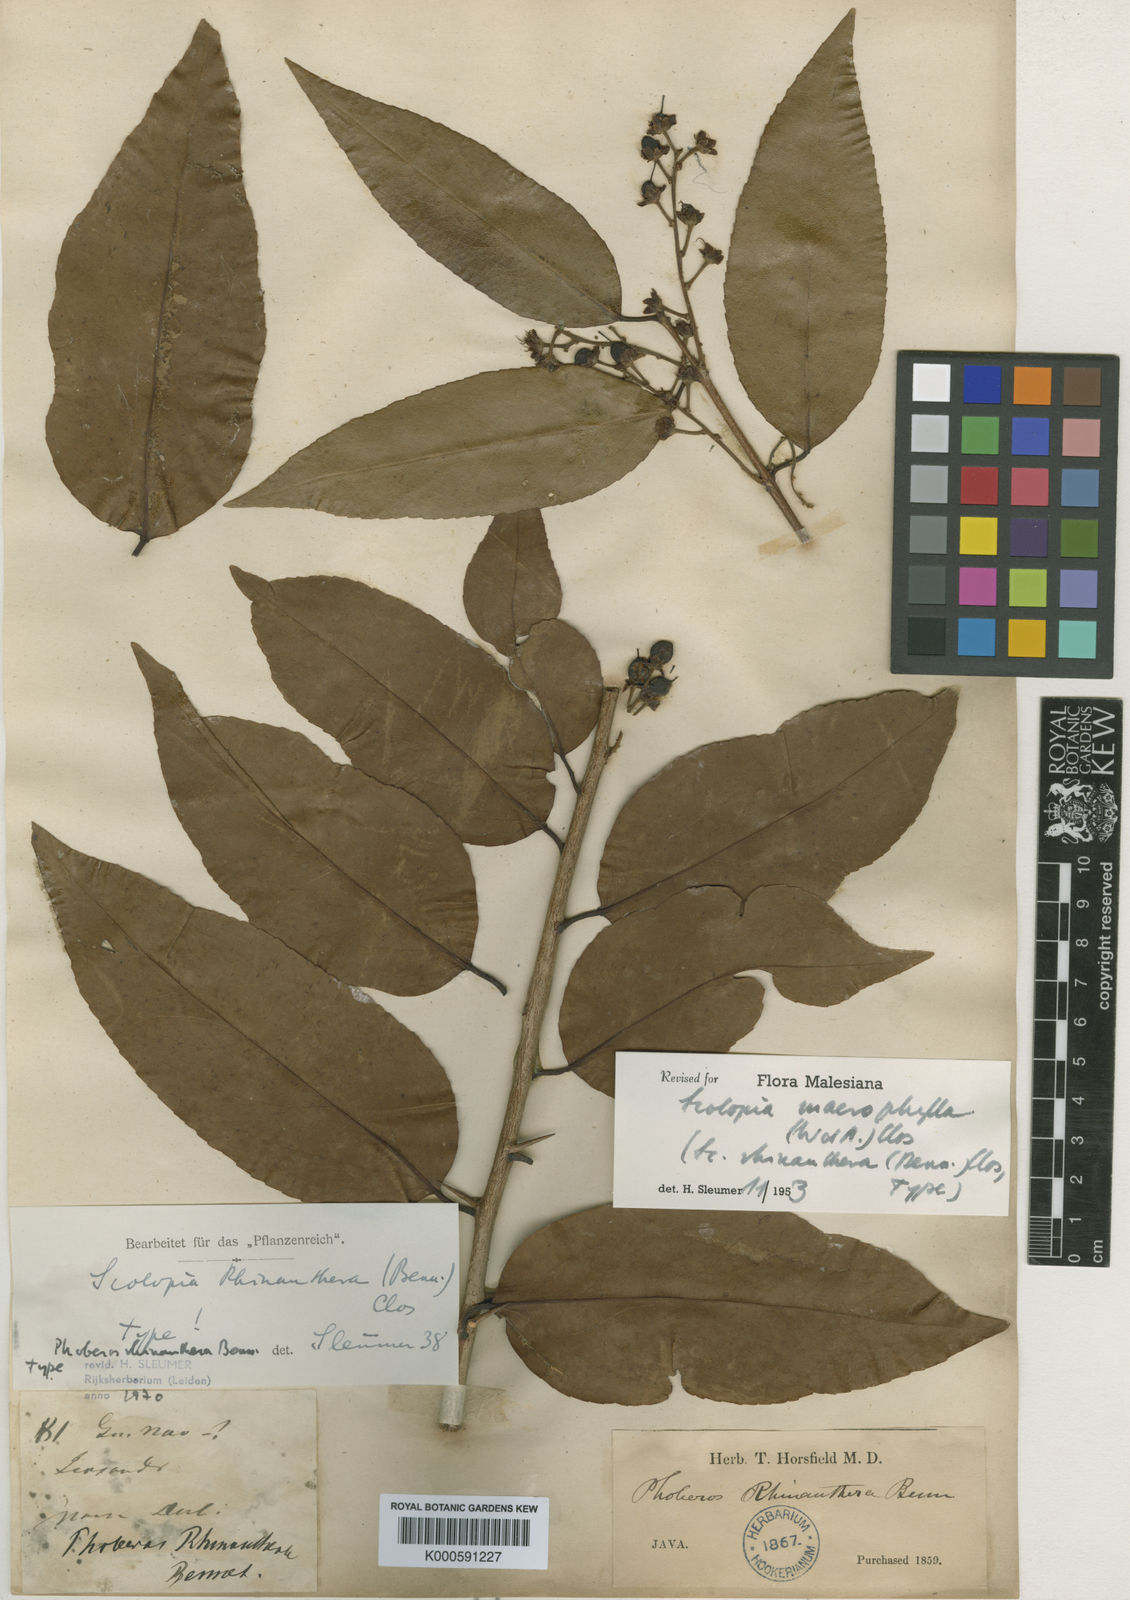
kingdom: Plantae
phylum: Tracheophyta
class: Magnoliopsida
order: Malpighiales
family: Salicaceae
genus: Scolopia
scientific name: Scolopia macrophylla
